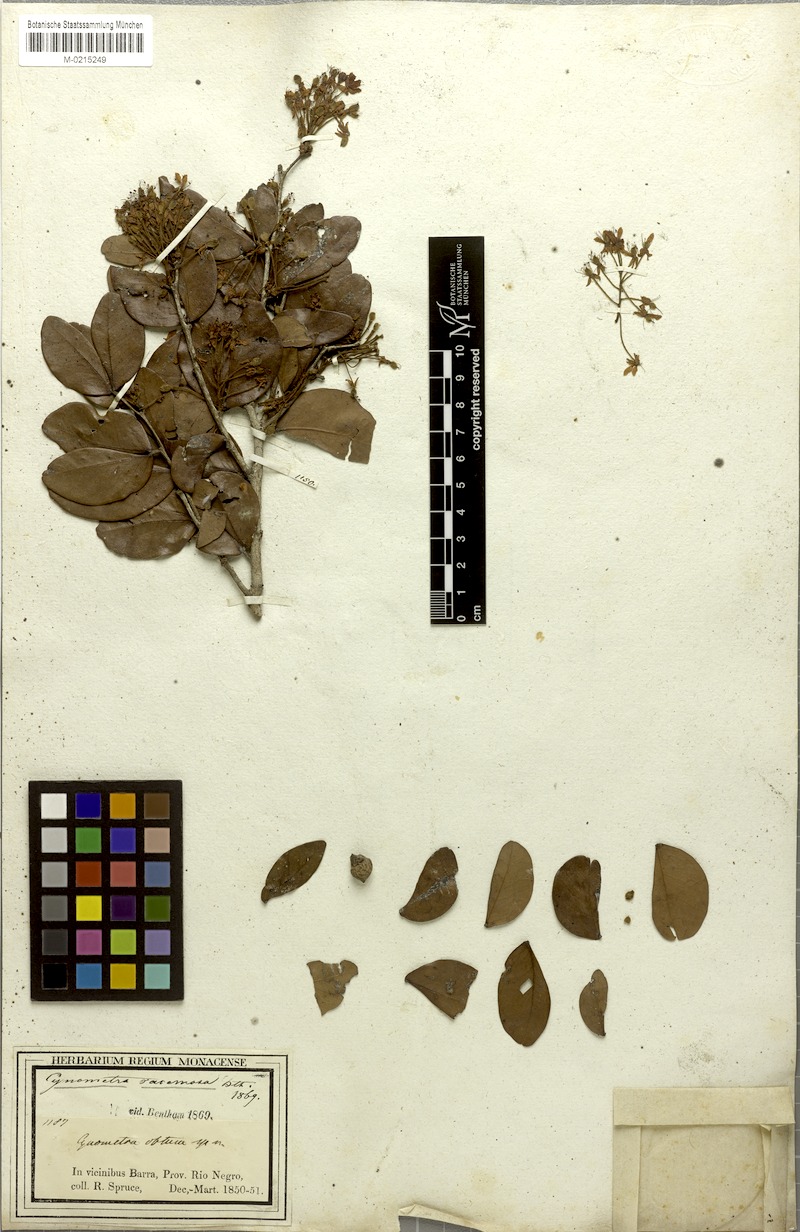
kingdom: Plantae
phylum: Tracheophyta
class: Magnoliopsida
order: Fabales
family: Fabaceae
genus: Cynometra
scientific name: Cynometra phaselocarpa
